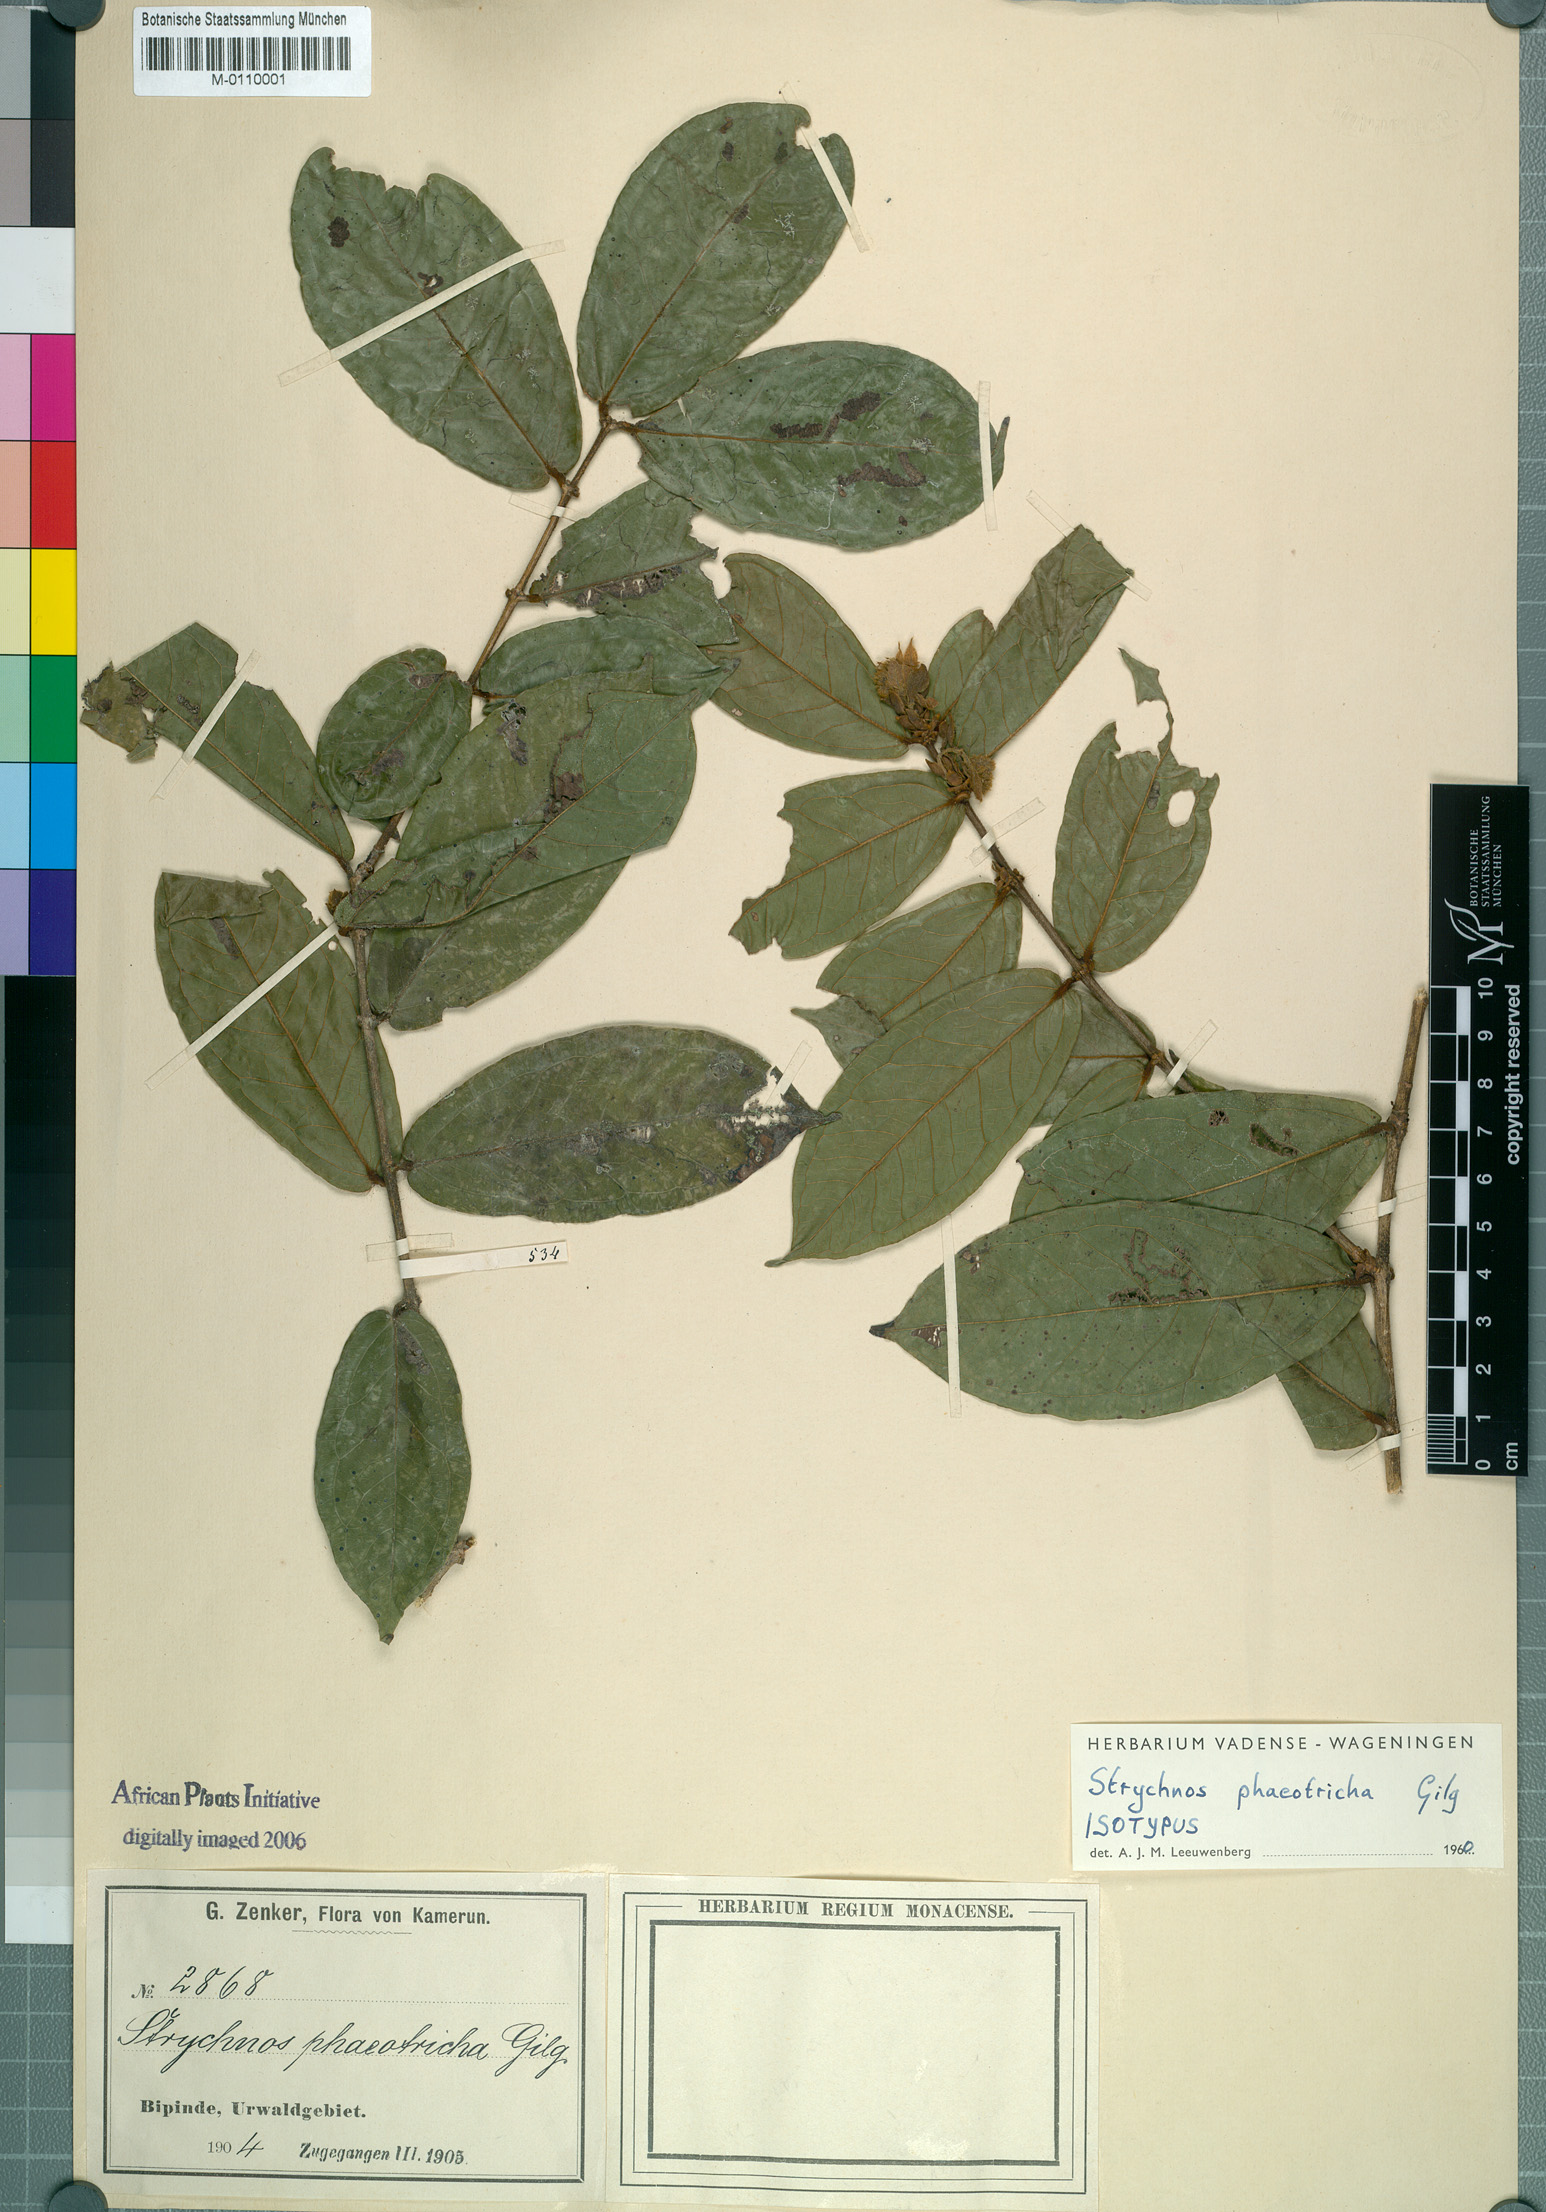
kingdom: Plantae
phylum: Tracheophyta
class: Magnoliopsida
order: Gentianales
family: Loganiaceae
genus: Strychnos
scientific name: Strychnos phaeotricha
